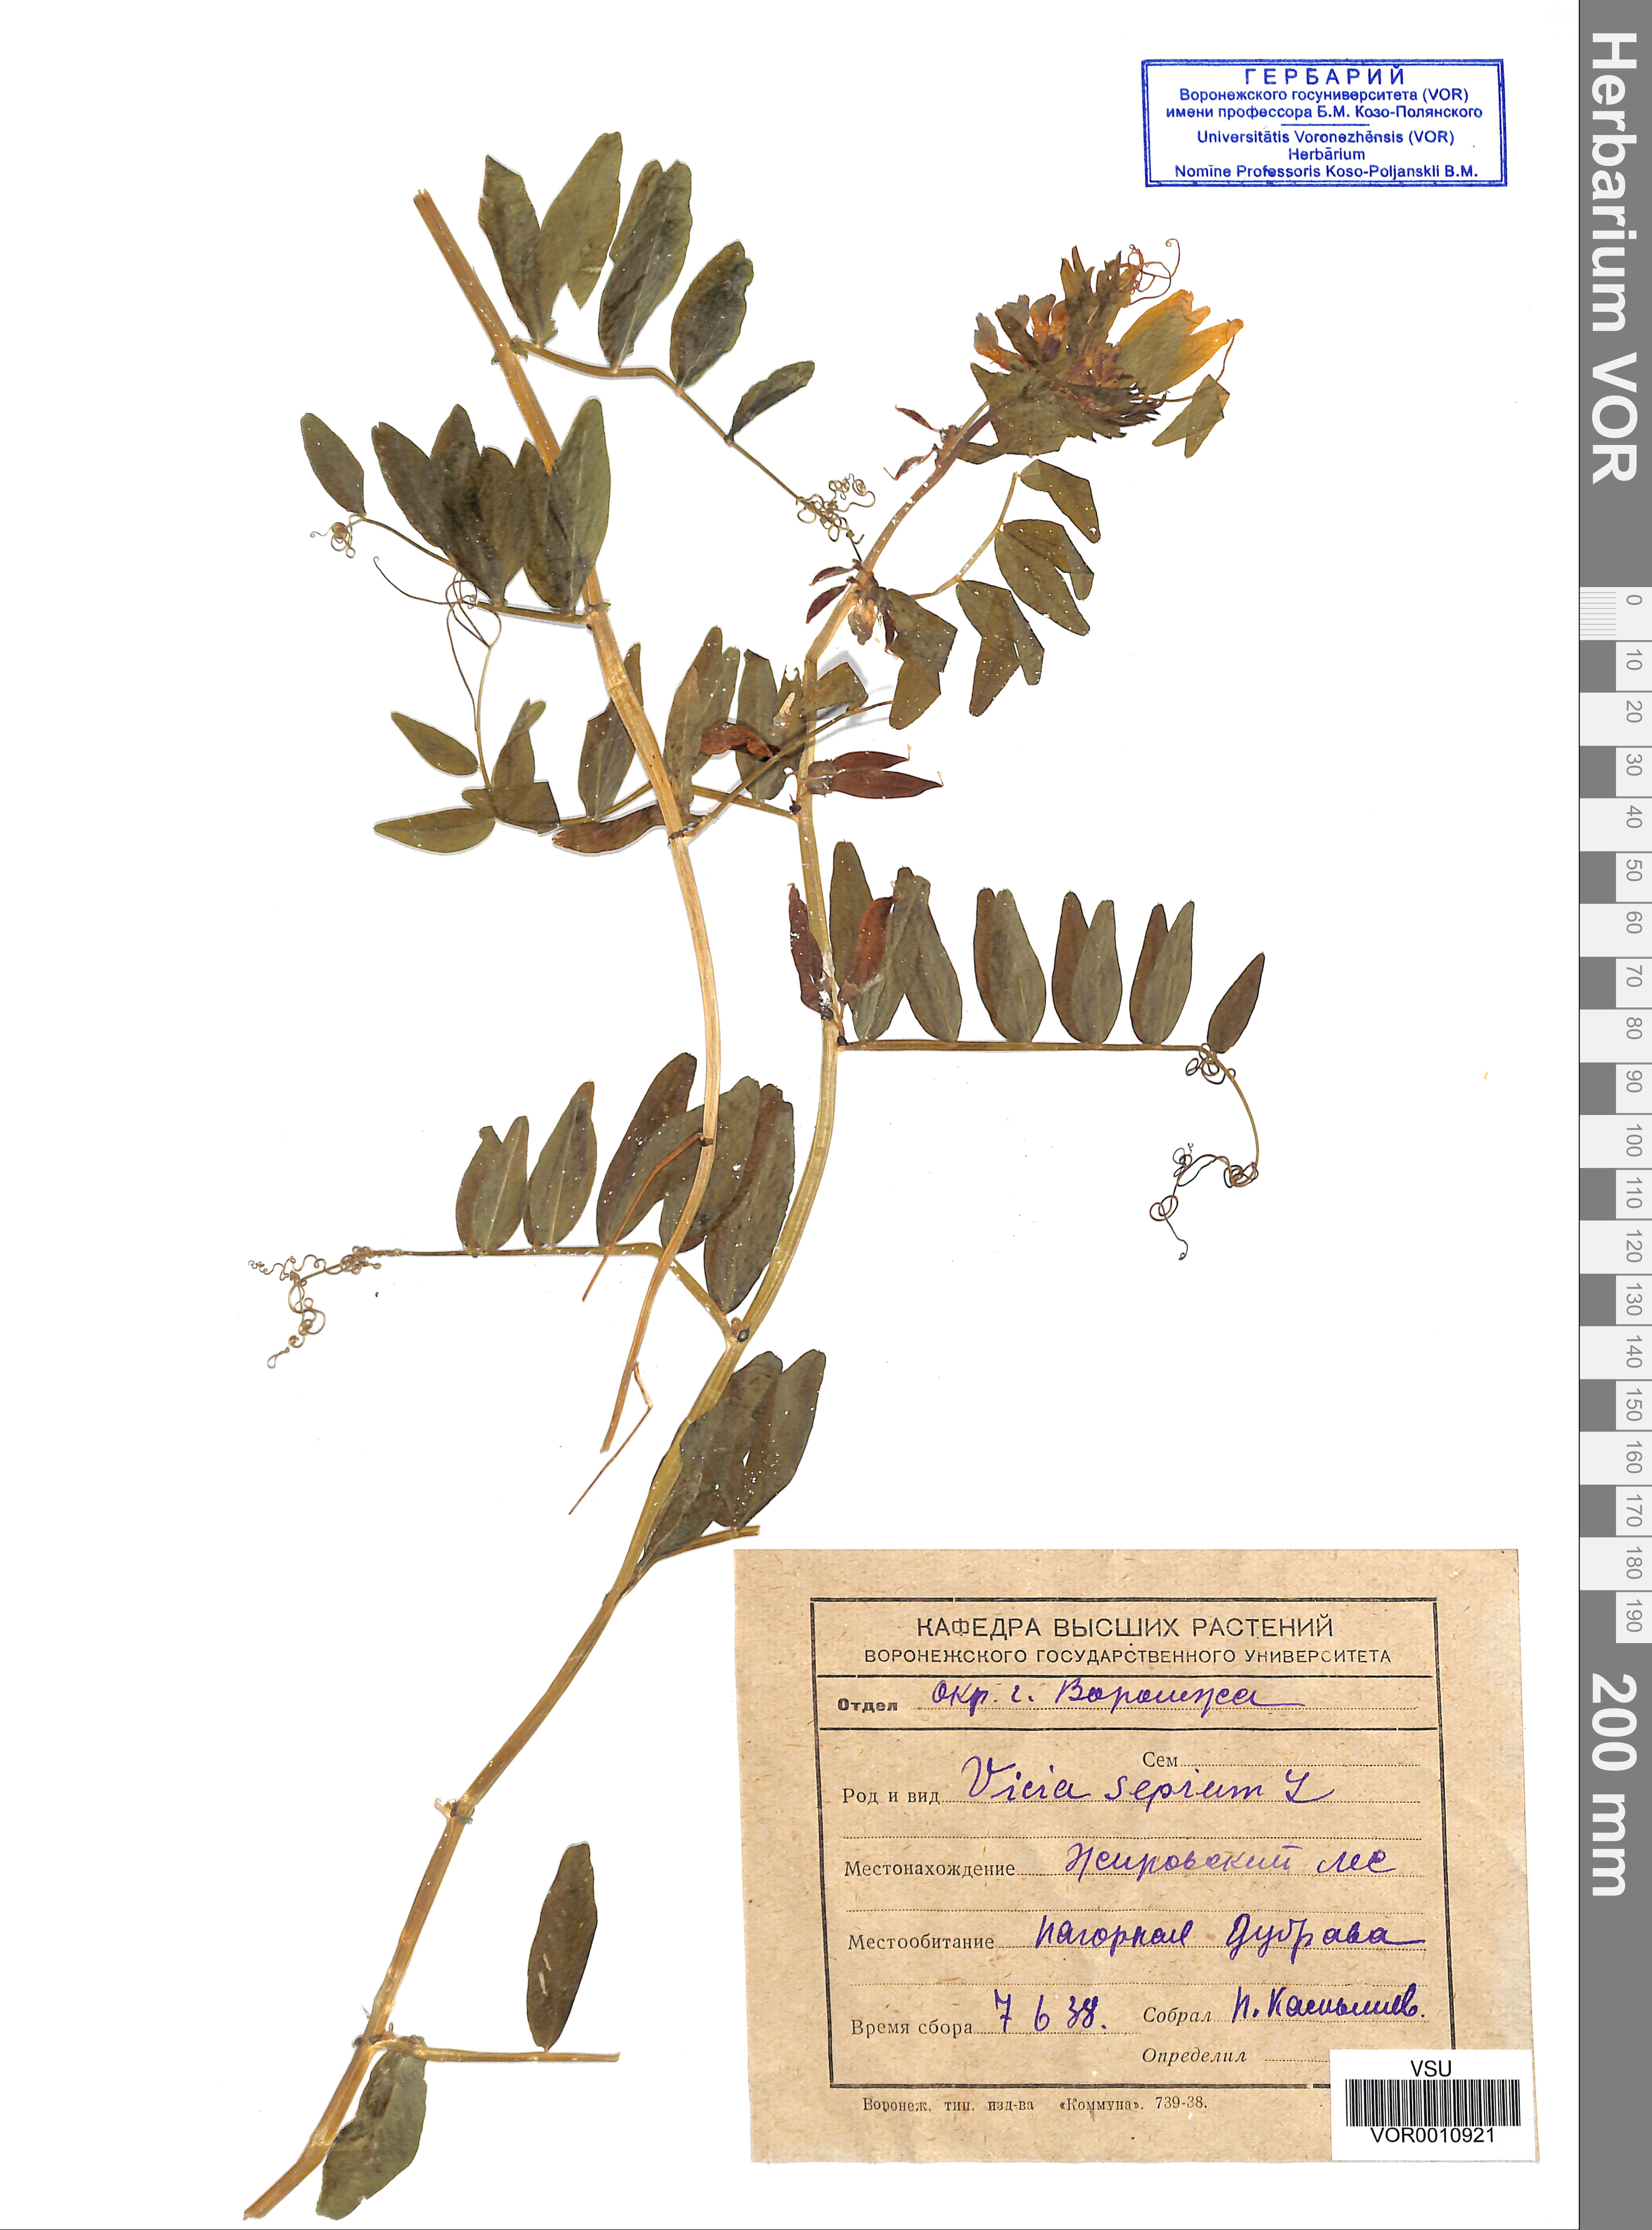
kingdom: Plantae
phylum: Tracheophyta
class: Magnoliopsida
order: Fabales
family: Fabaceae
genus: Vicia
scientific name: Vicia sepium
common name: Bush vetch
